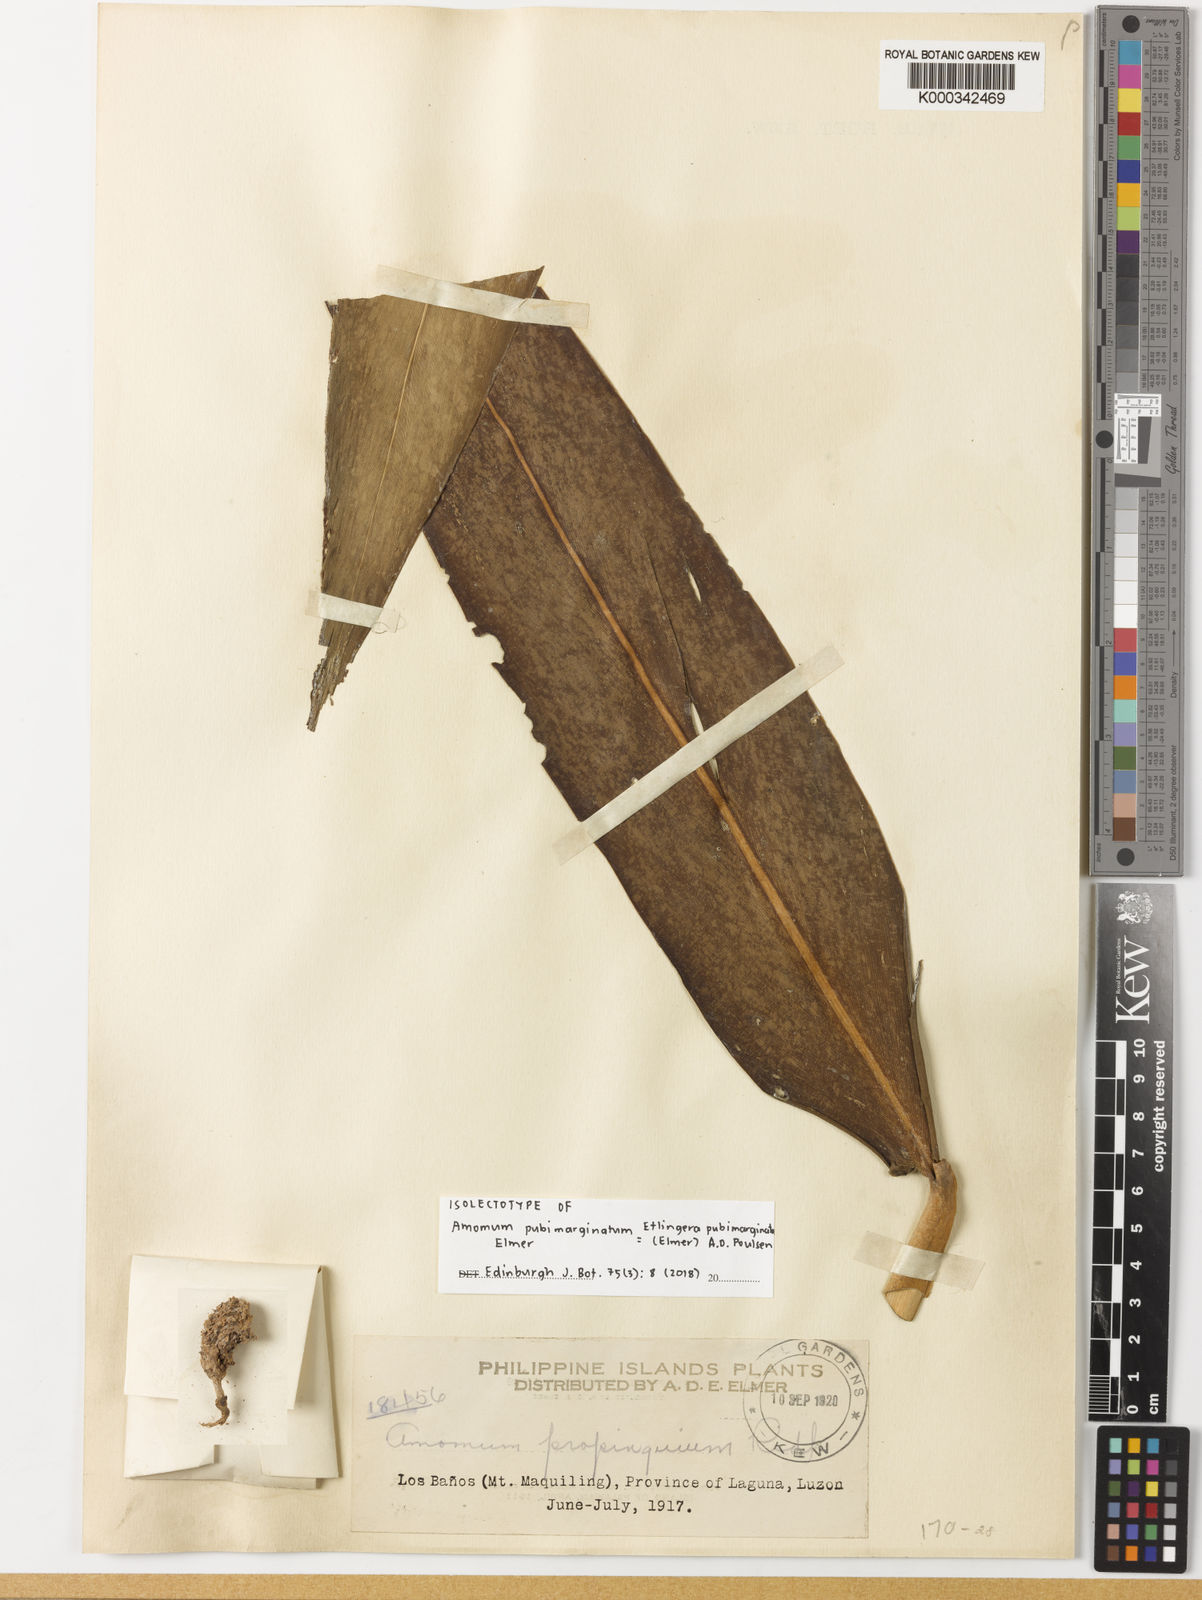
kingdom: Plantae
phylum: Tracheophyta
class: Liliopsida
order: Zingiberales
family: Zingiberaceae
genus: Etlingera
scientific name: Etlingera pubimarginata
